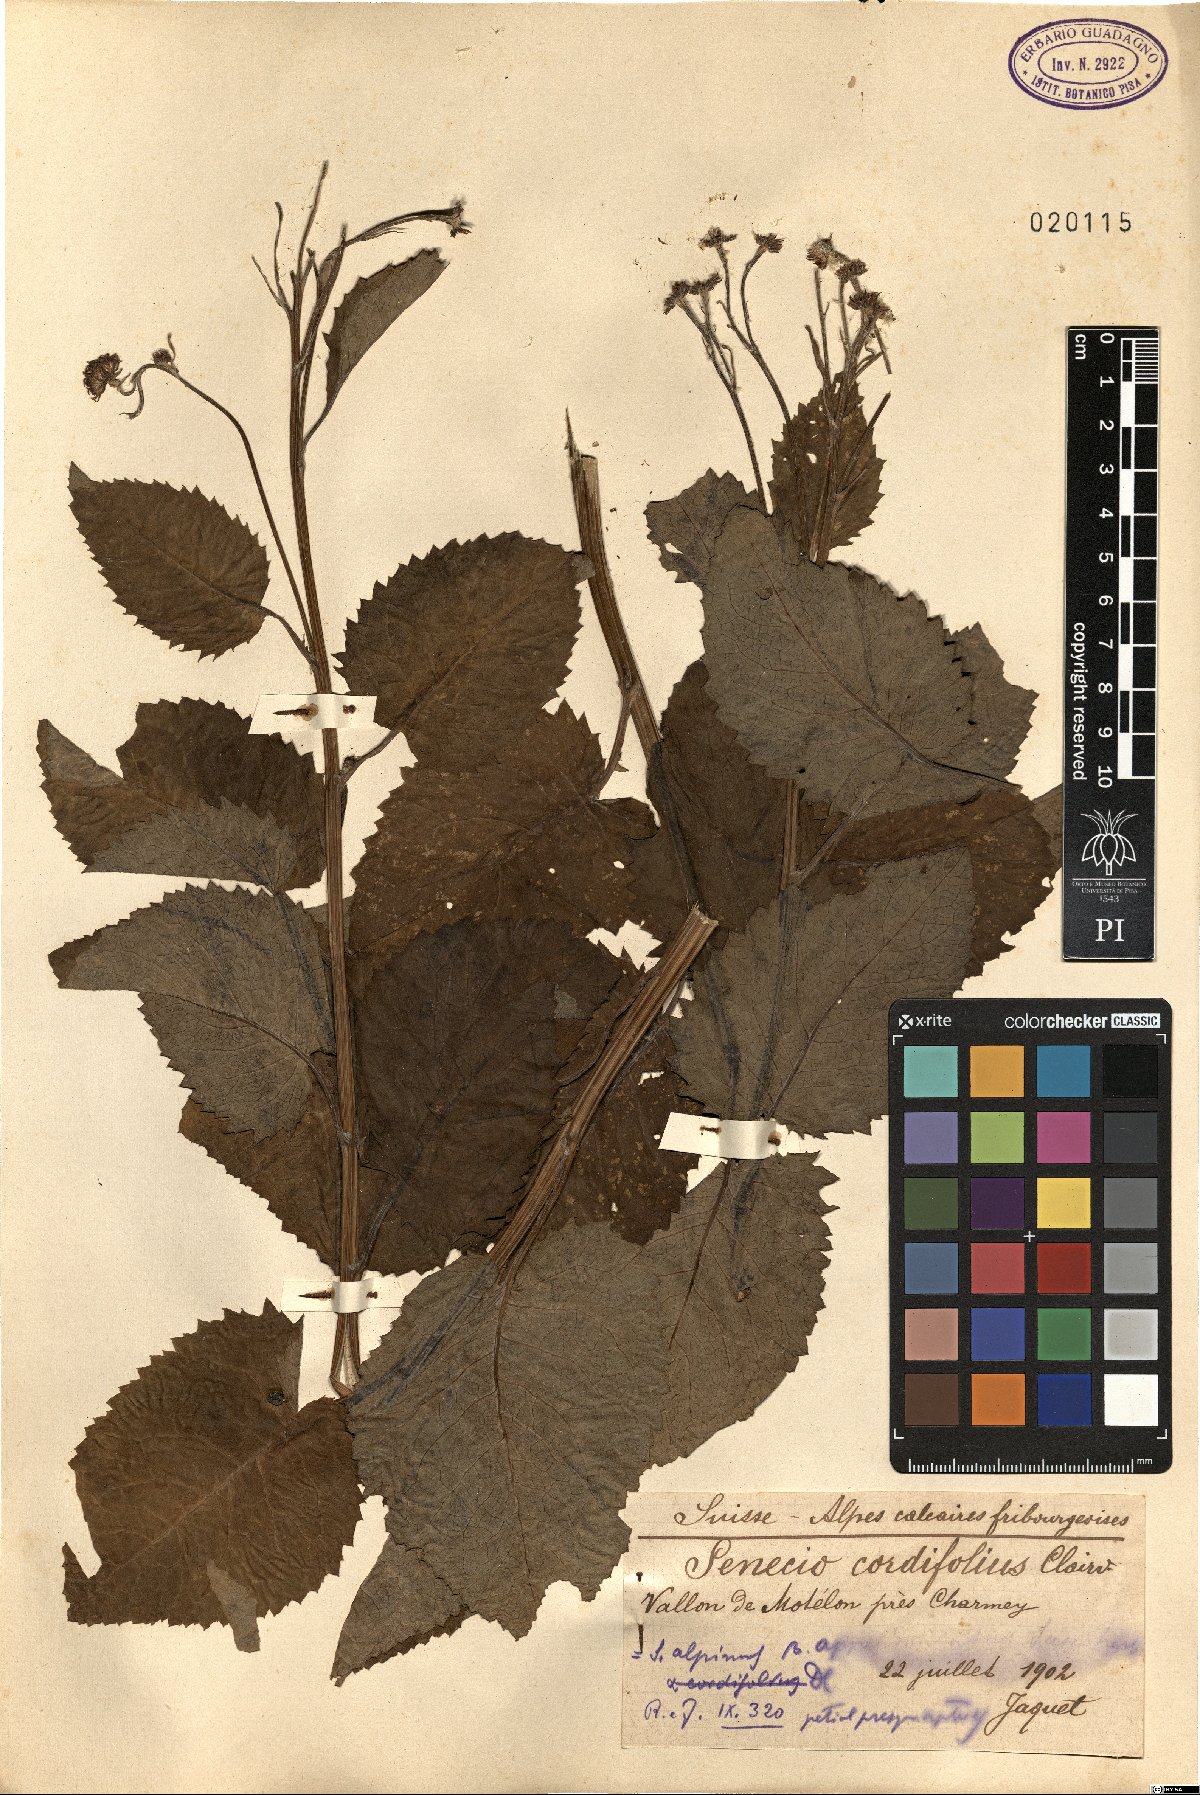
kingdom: Plantae
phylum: Tracheophyta
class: Magnoliopsida
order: Asterales
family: Asteraceae
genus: Jacobaea
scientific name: Jacobaea alpina
